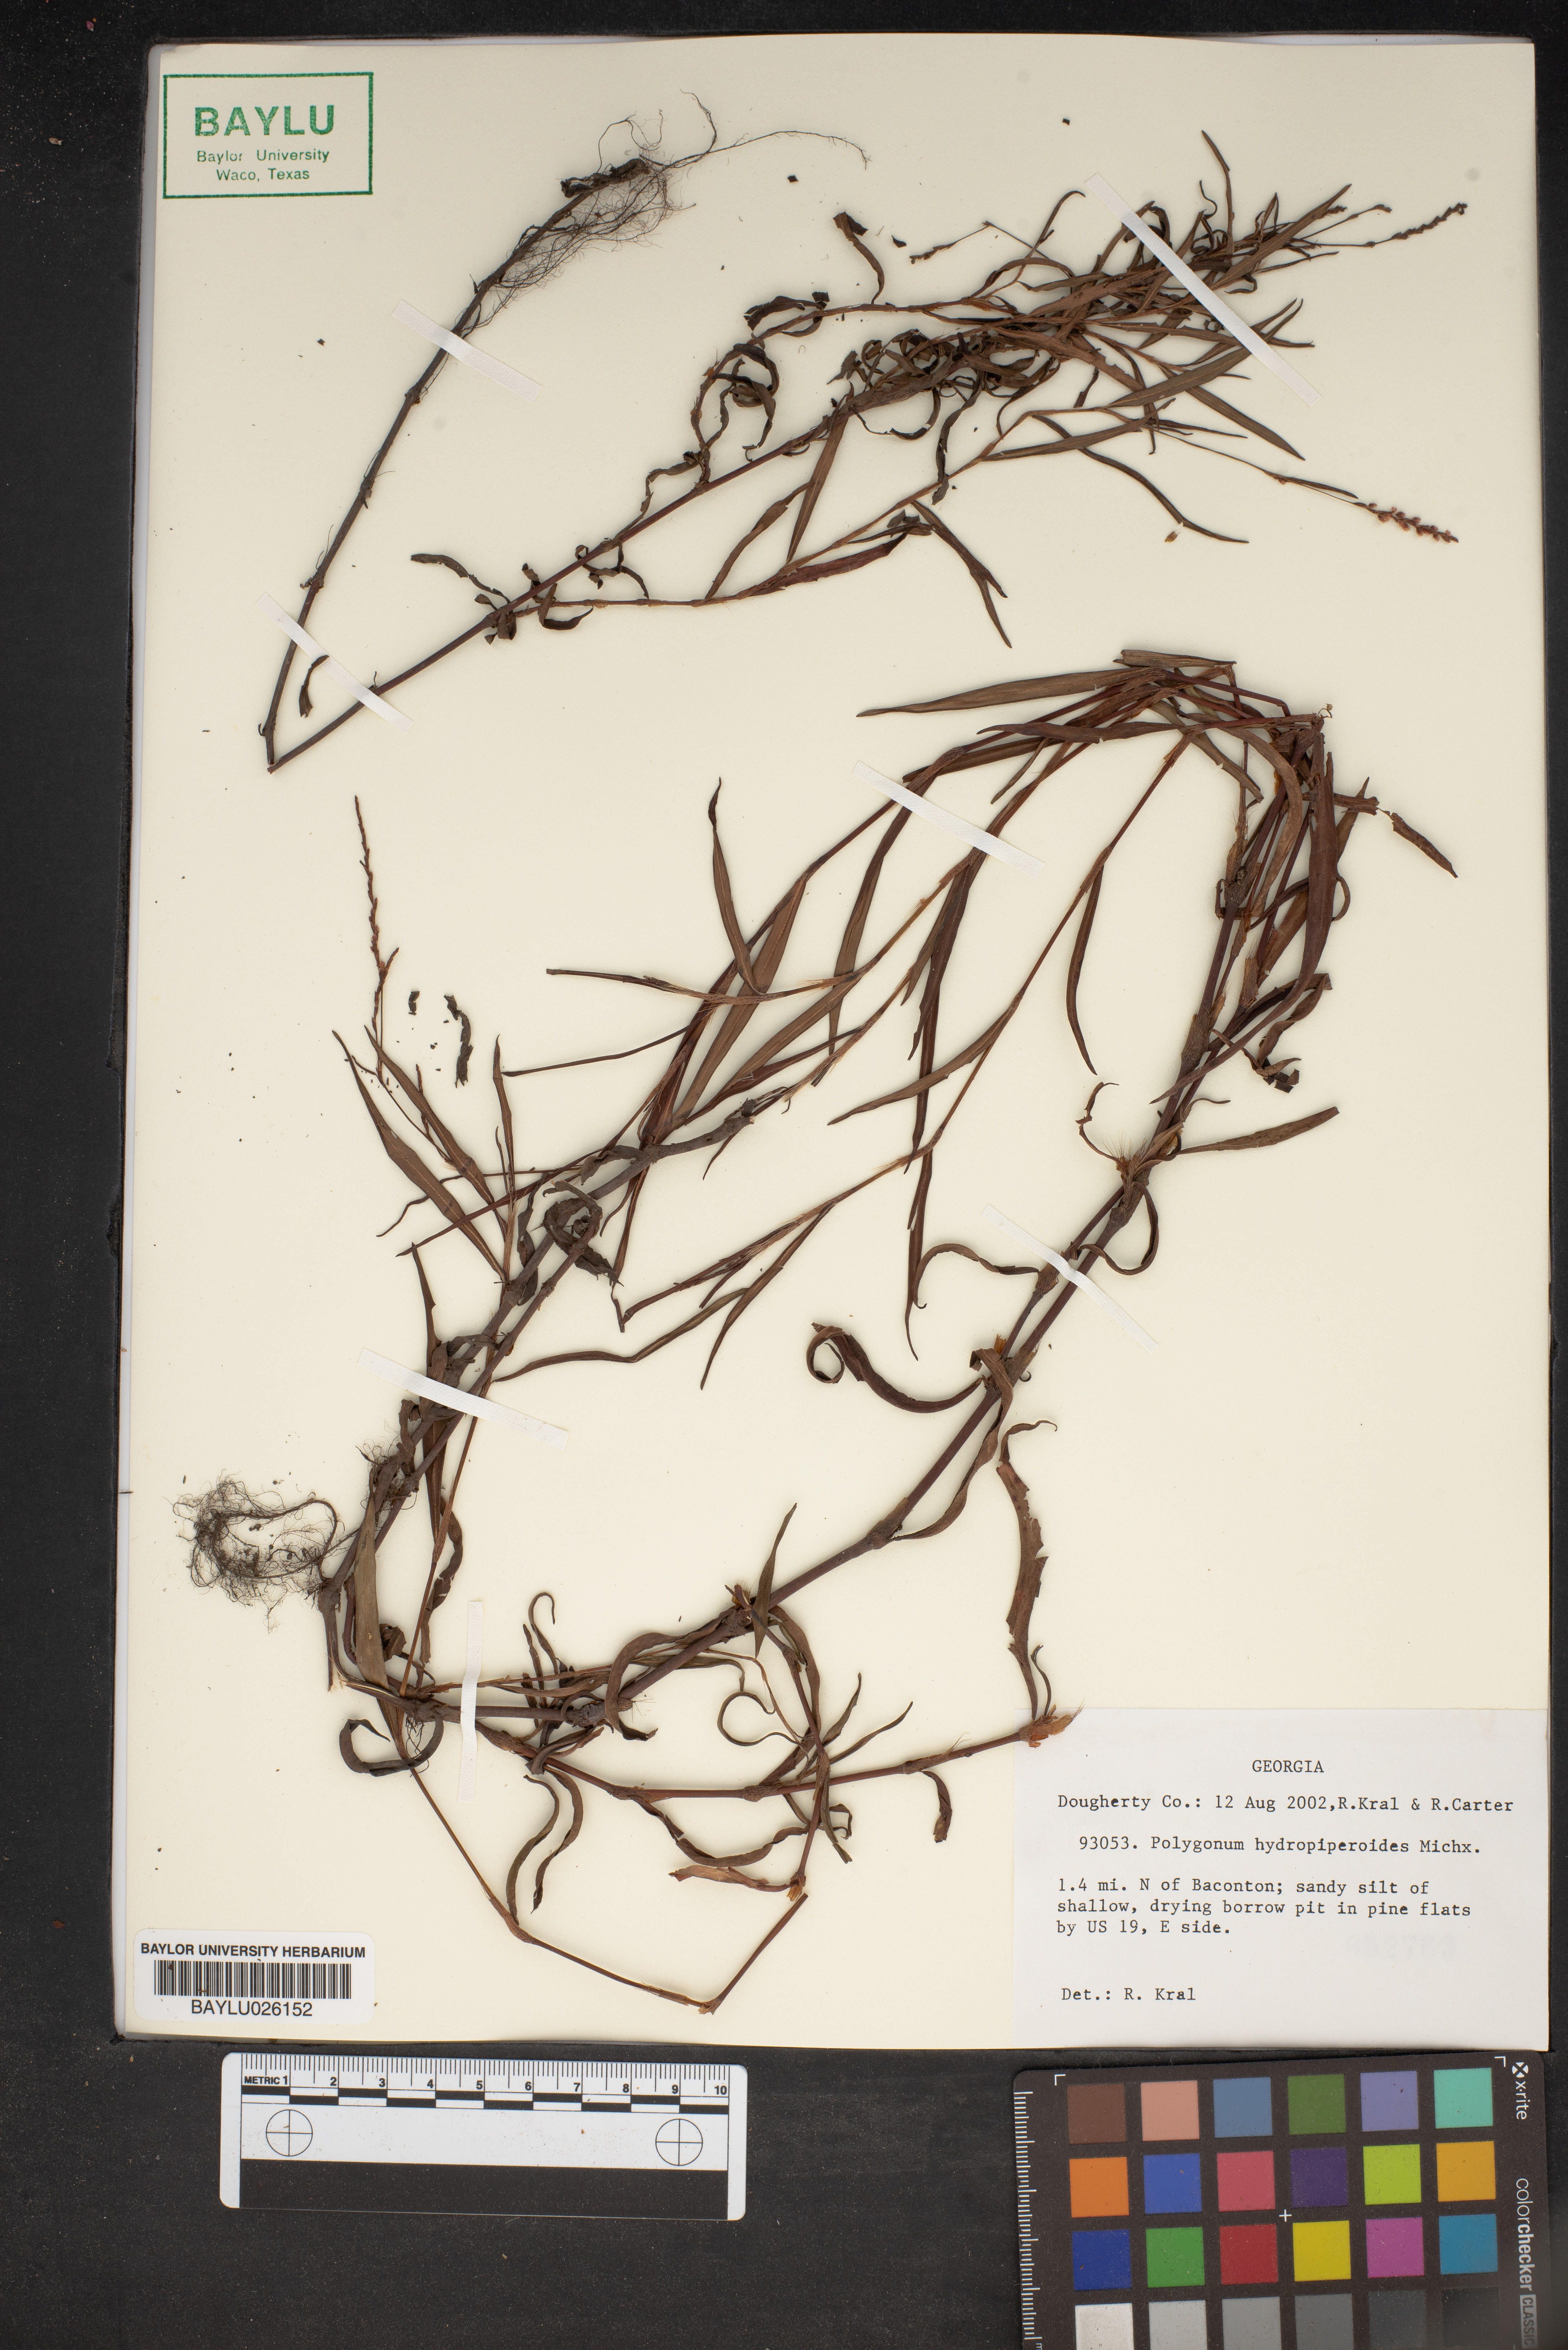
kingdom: Plantae
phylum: Tracheophyta
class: Magnoliopsida
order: Caryophyllales
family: Polygonaceae
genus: Persicaria
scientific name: Persicaria hydropiperoides
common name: Swamp smartweed
